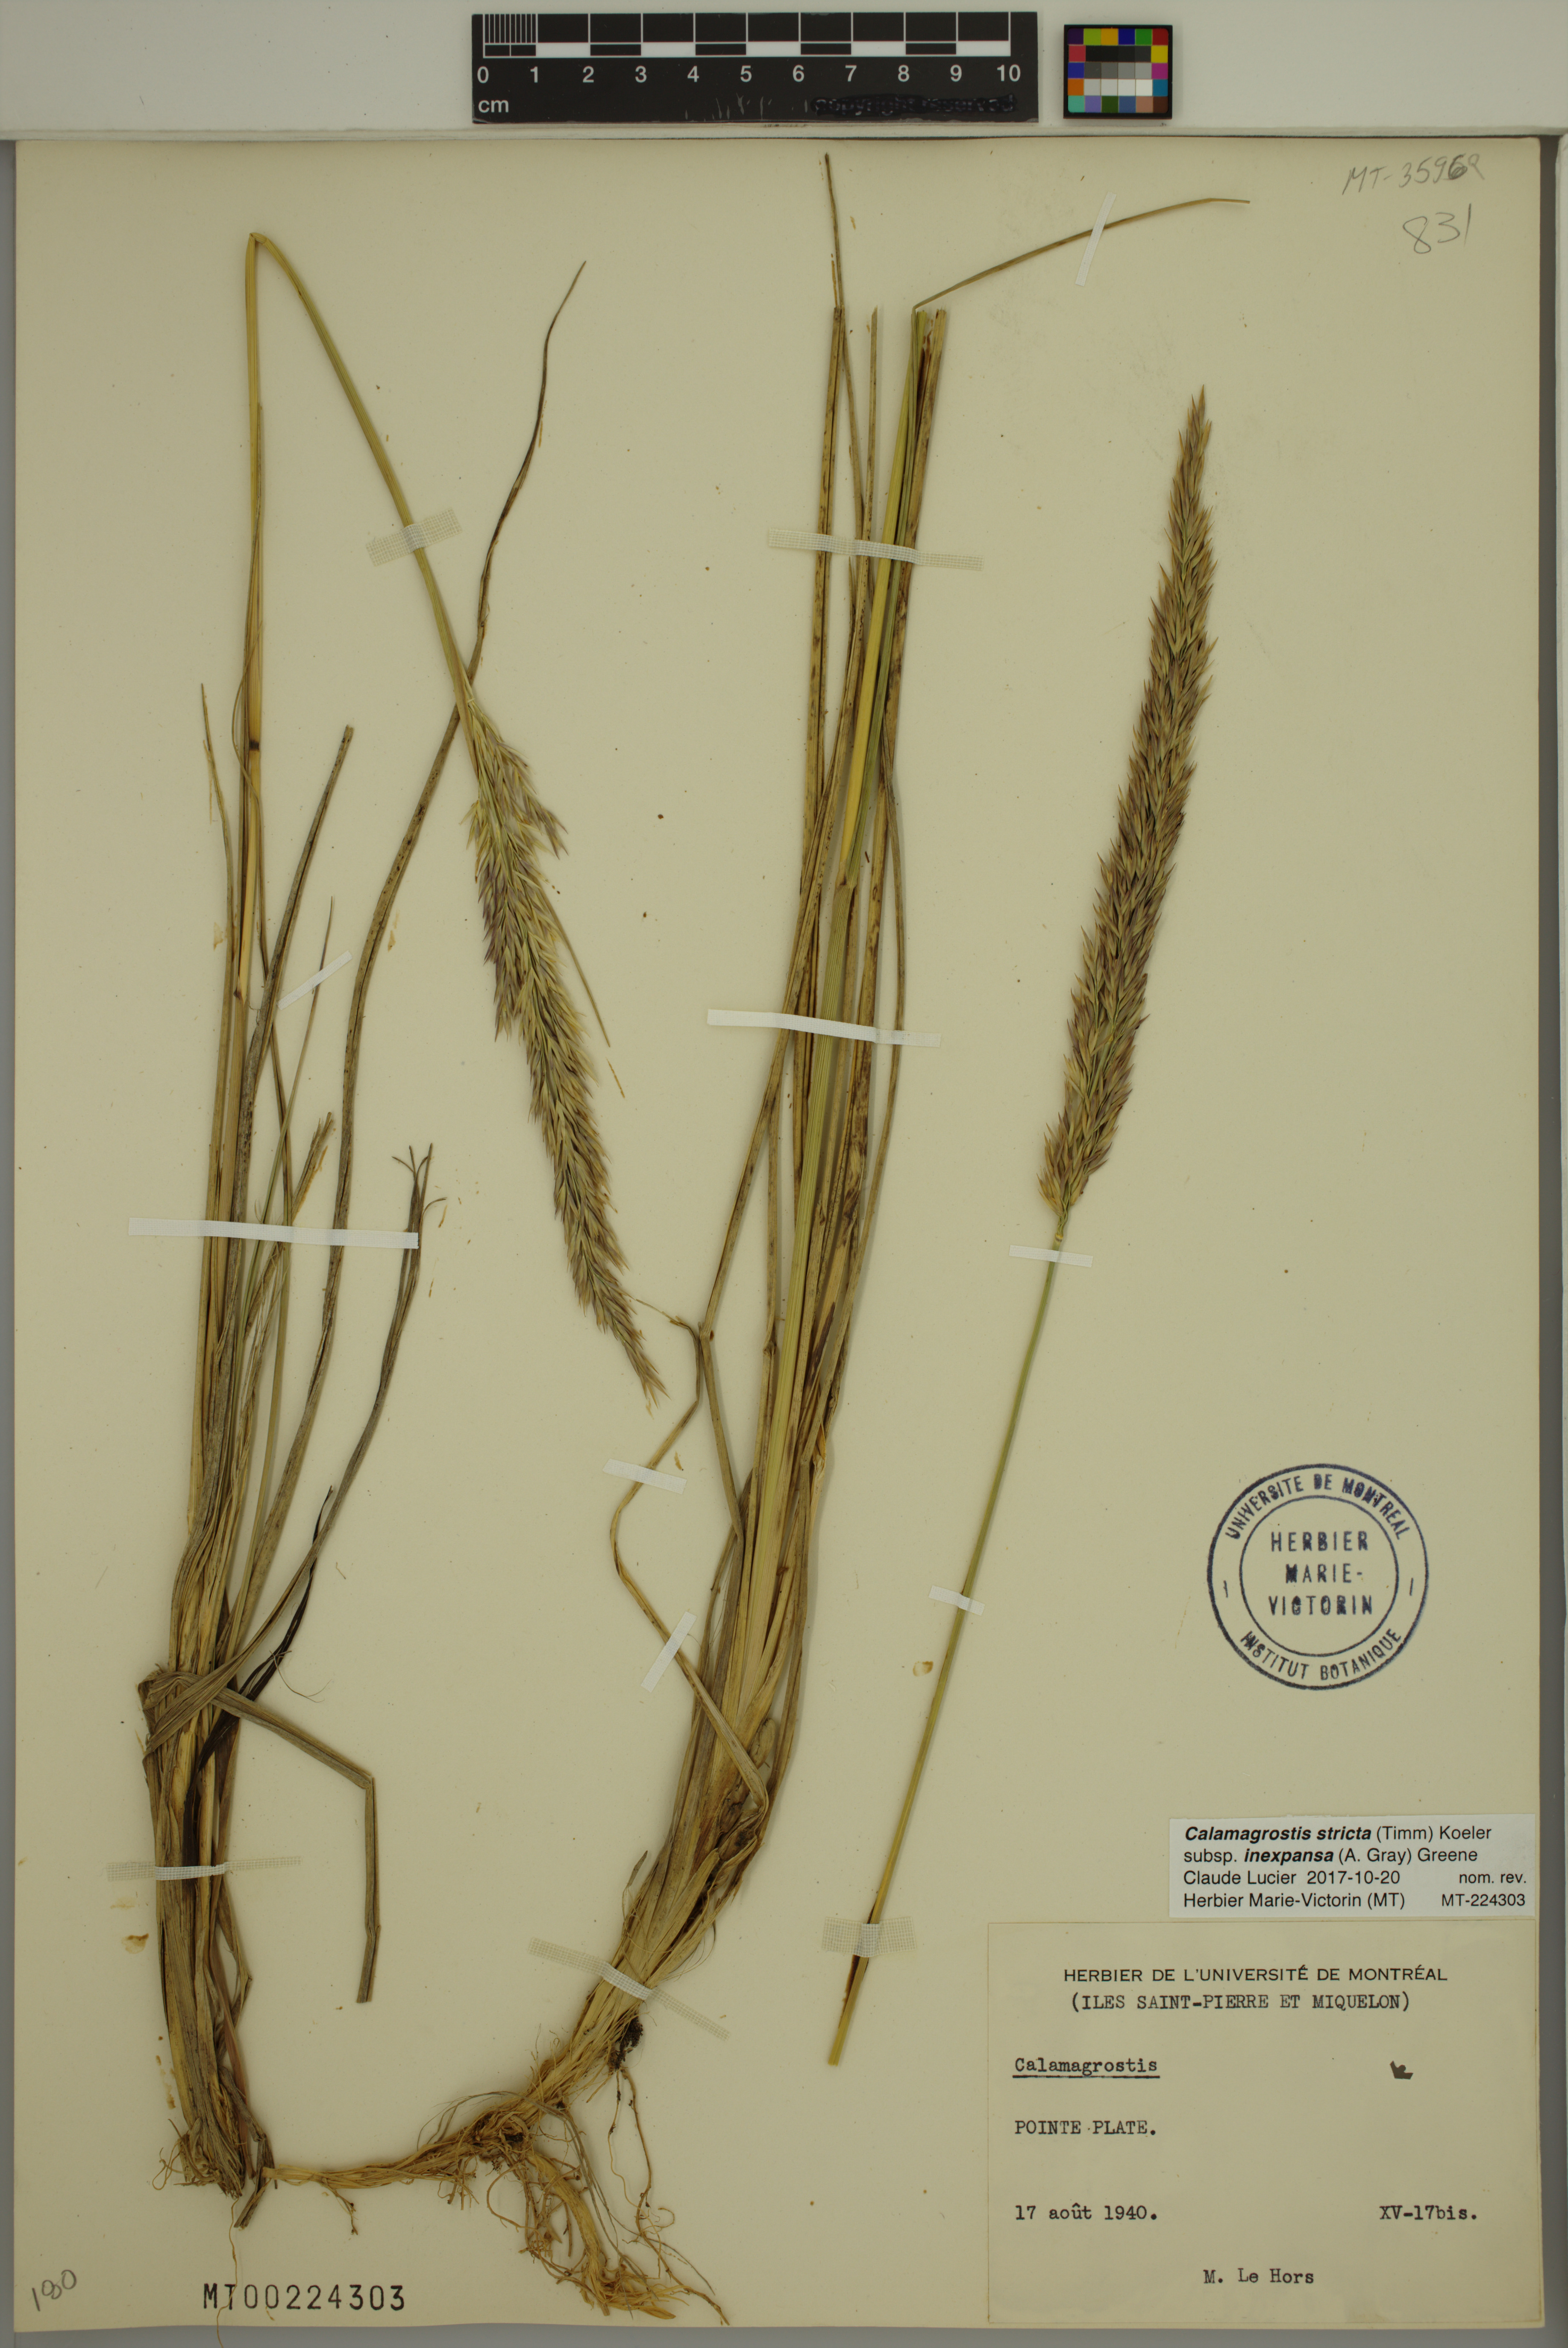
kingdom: Plantae
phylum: Tracheophyta
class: Liliopsida
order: Poales
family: Poaceae
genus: Calamagrostis
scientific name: Calamagrostis inexpansa
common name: Northern reedgrass
